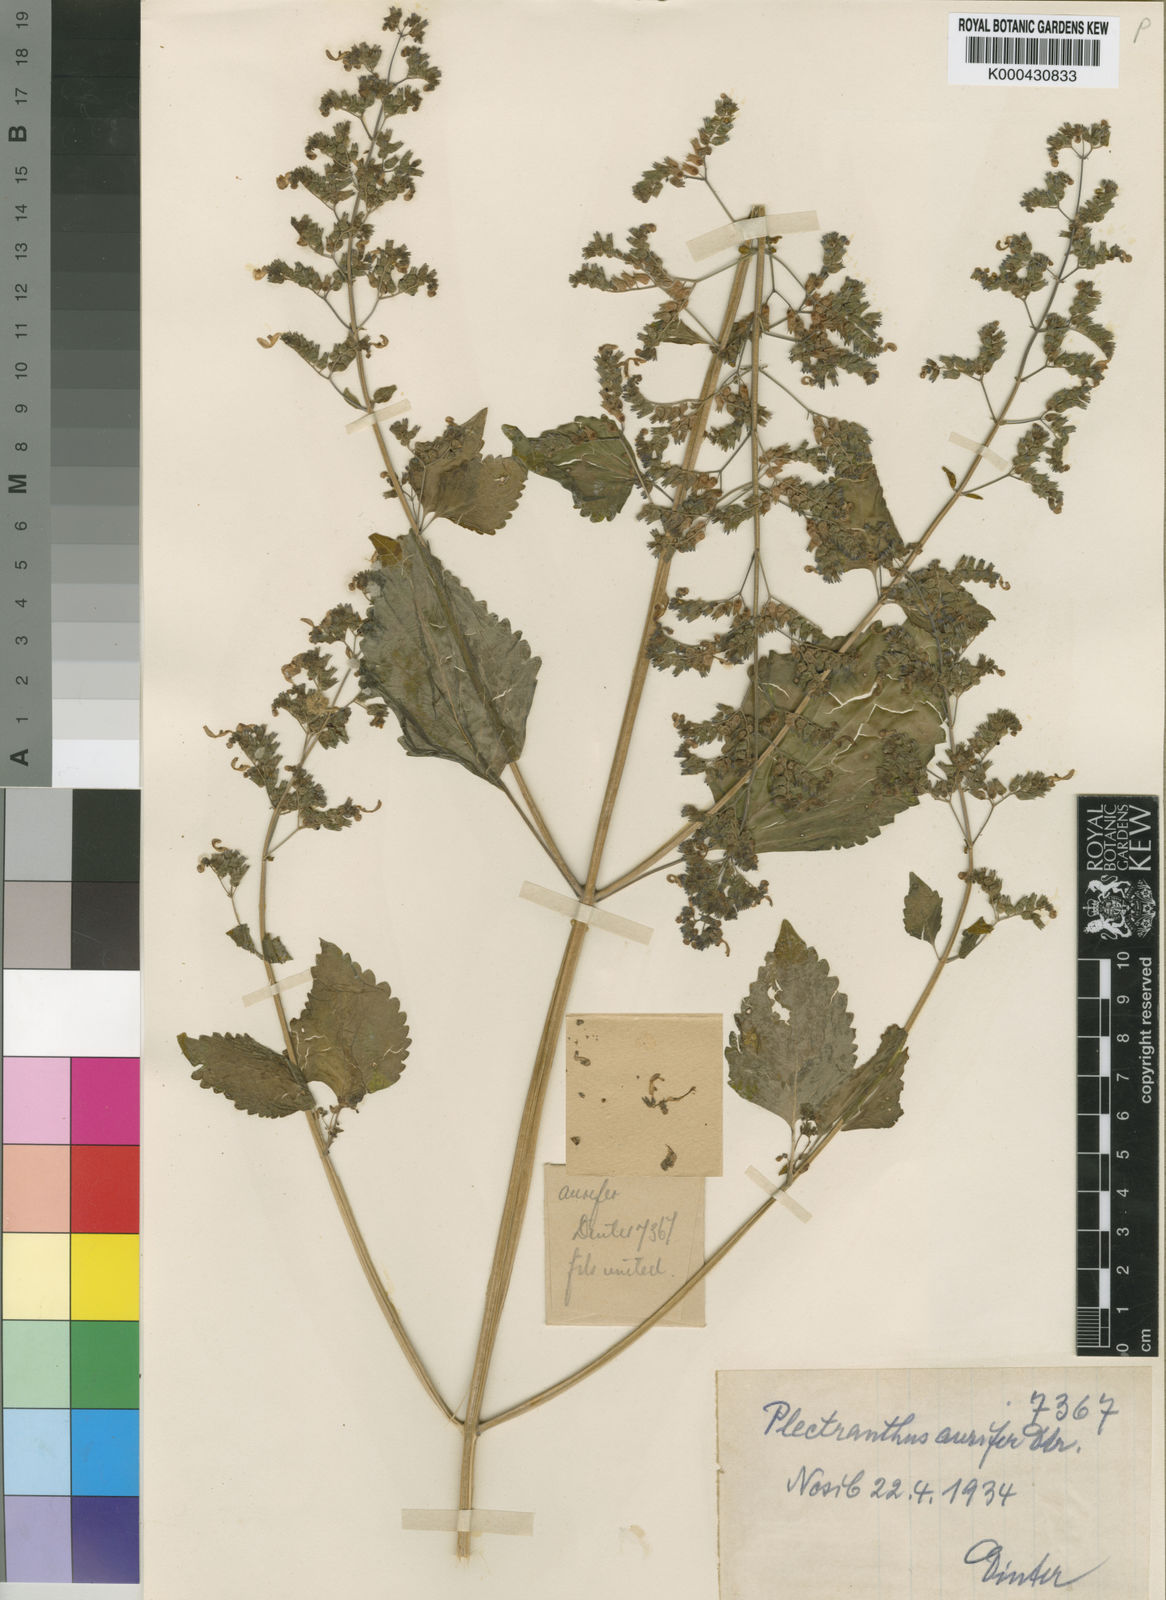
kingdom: Plantae
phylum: Tracheophyta
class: Magnoliopsida
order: Lamiales
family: Lamiaceae
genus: Coleus
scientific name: Coleus hereroensis
